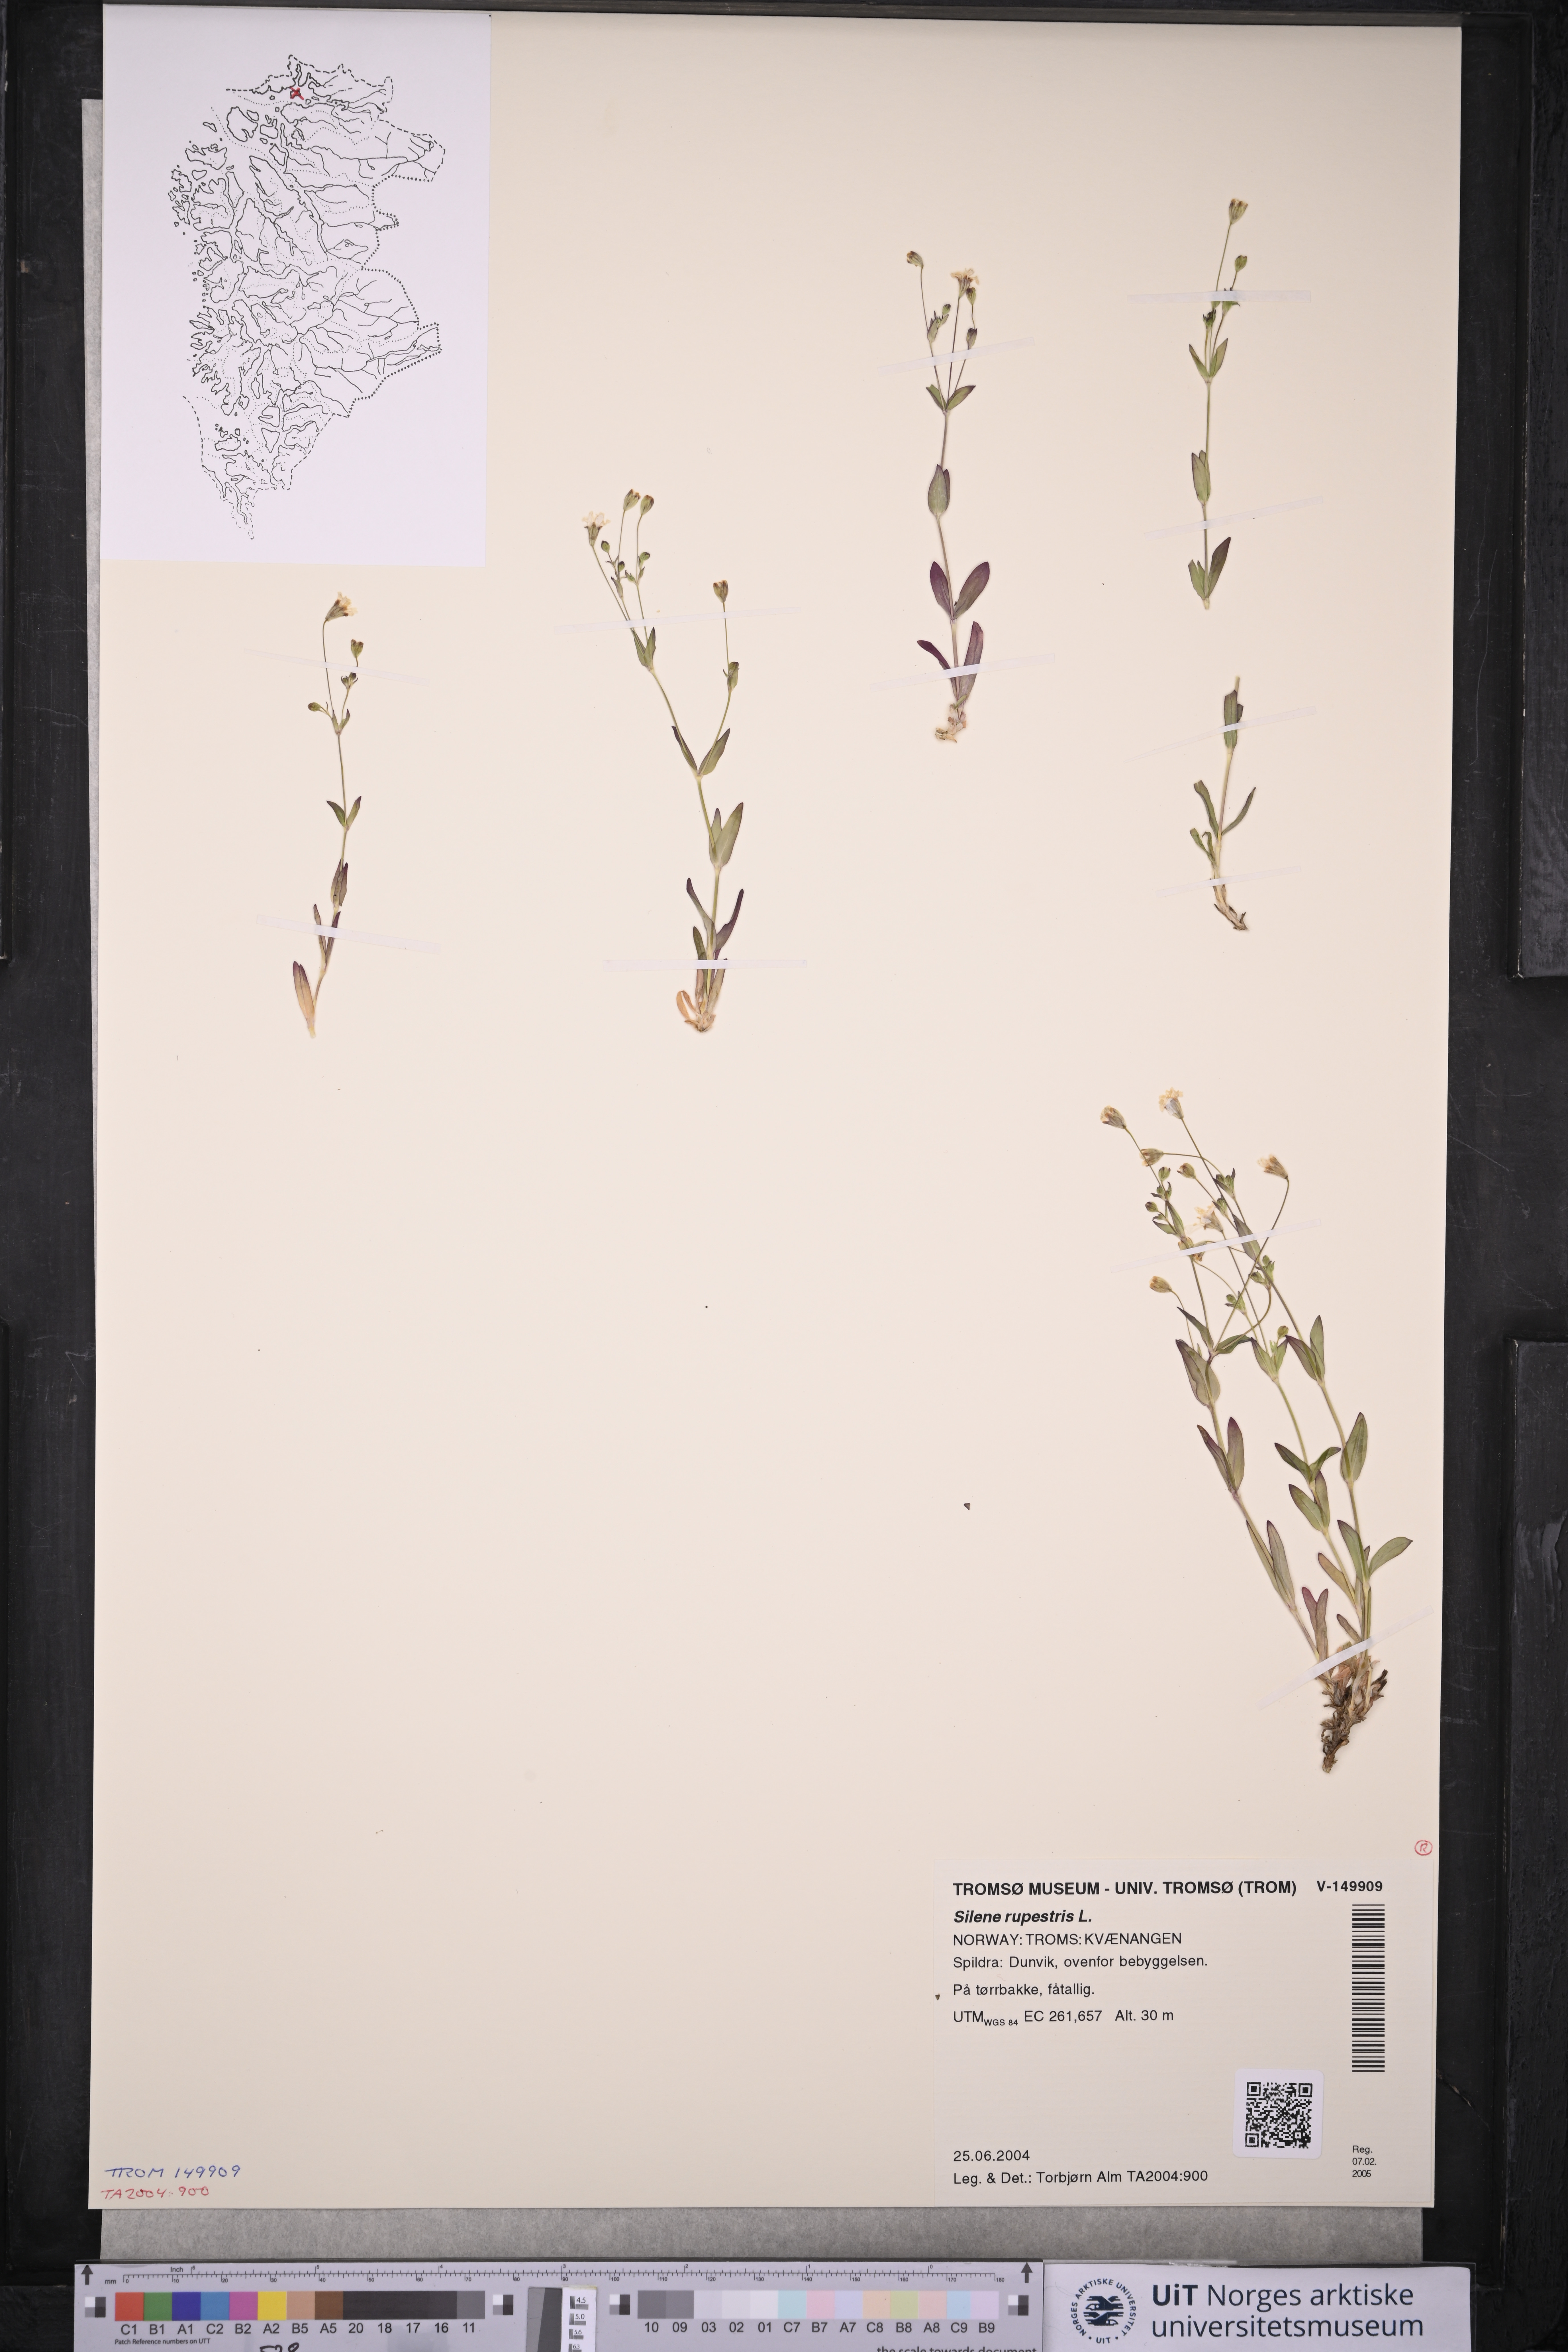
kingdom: Plantae
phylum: Tracheophyta
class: Magnoliopsida
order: Caryophyllales
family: Caryophyllaceae
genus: Atocion
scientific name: Atocion rupestre
